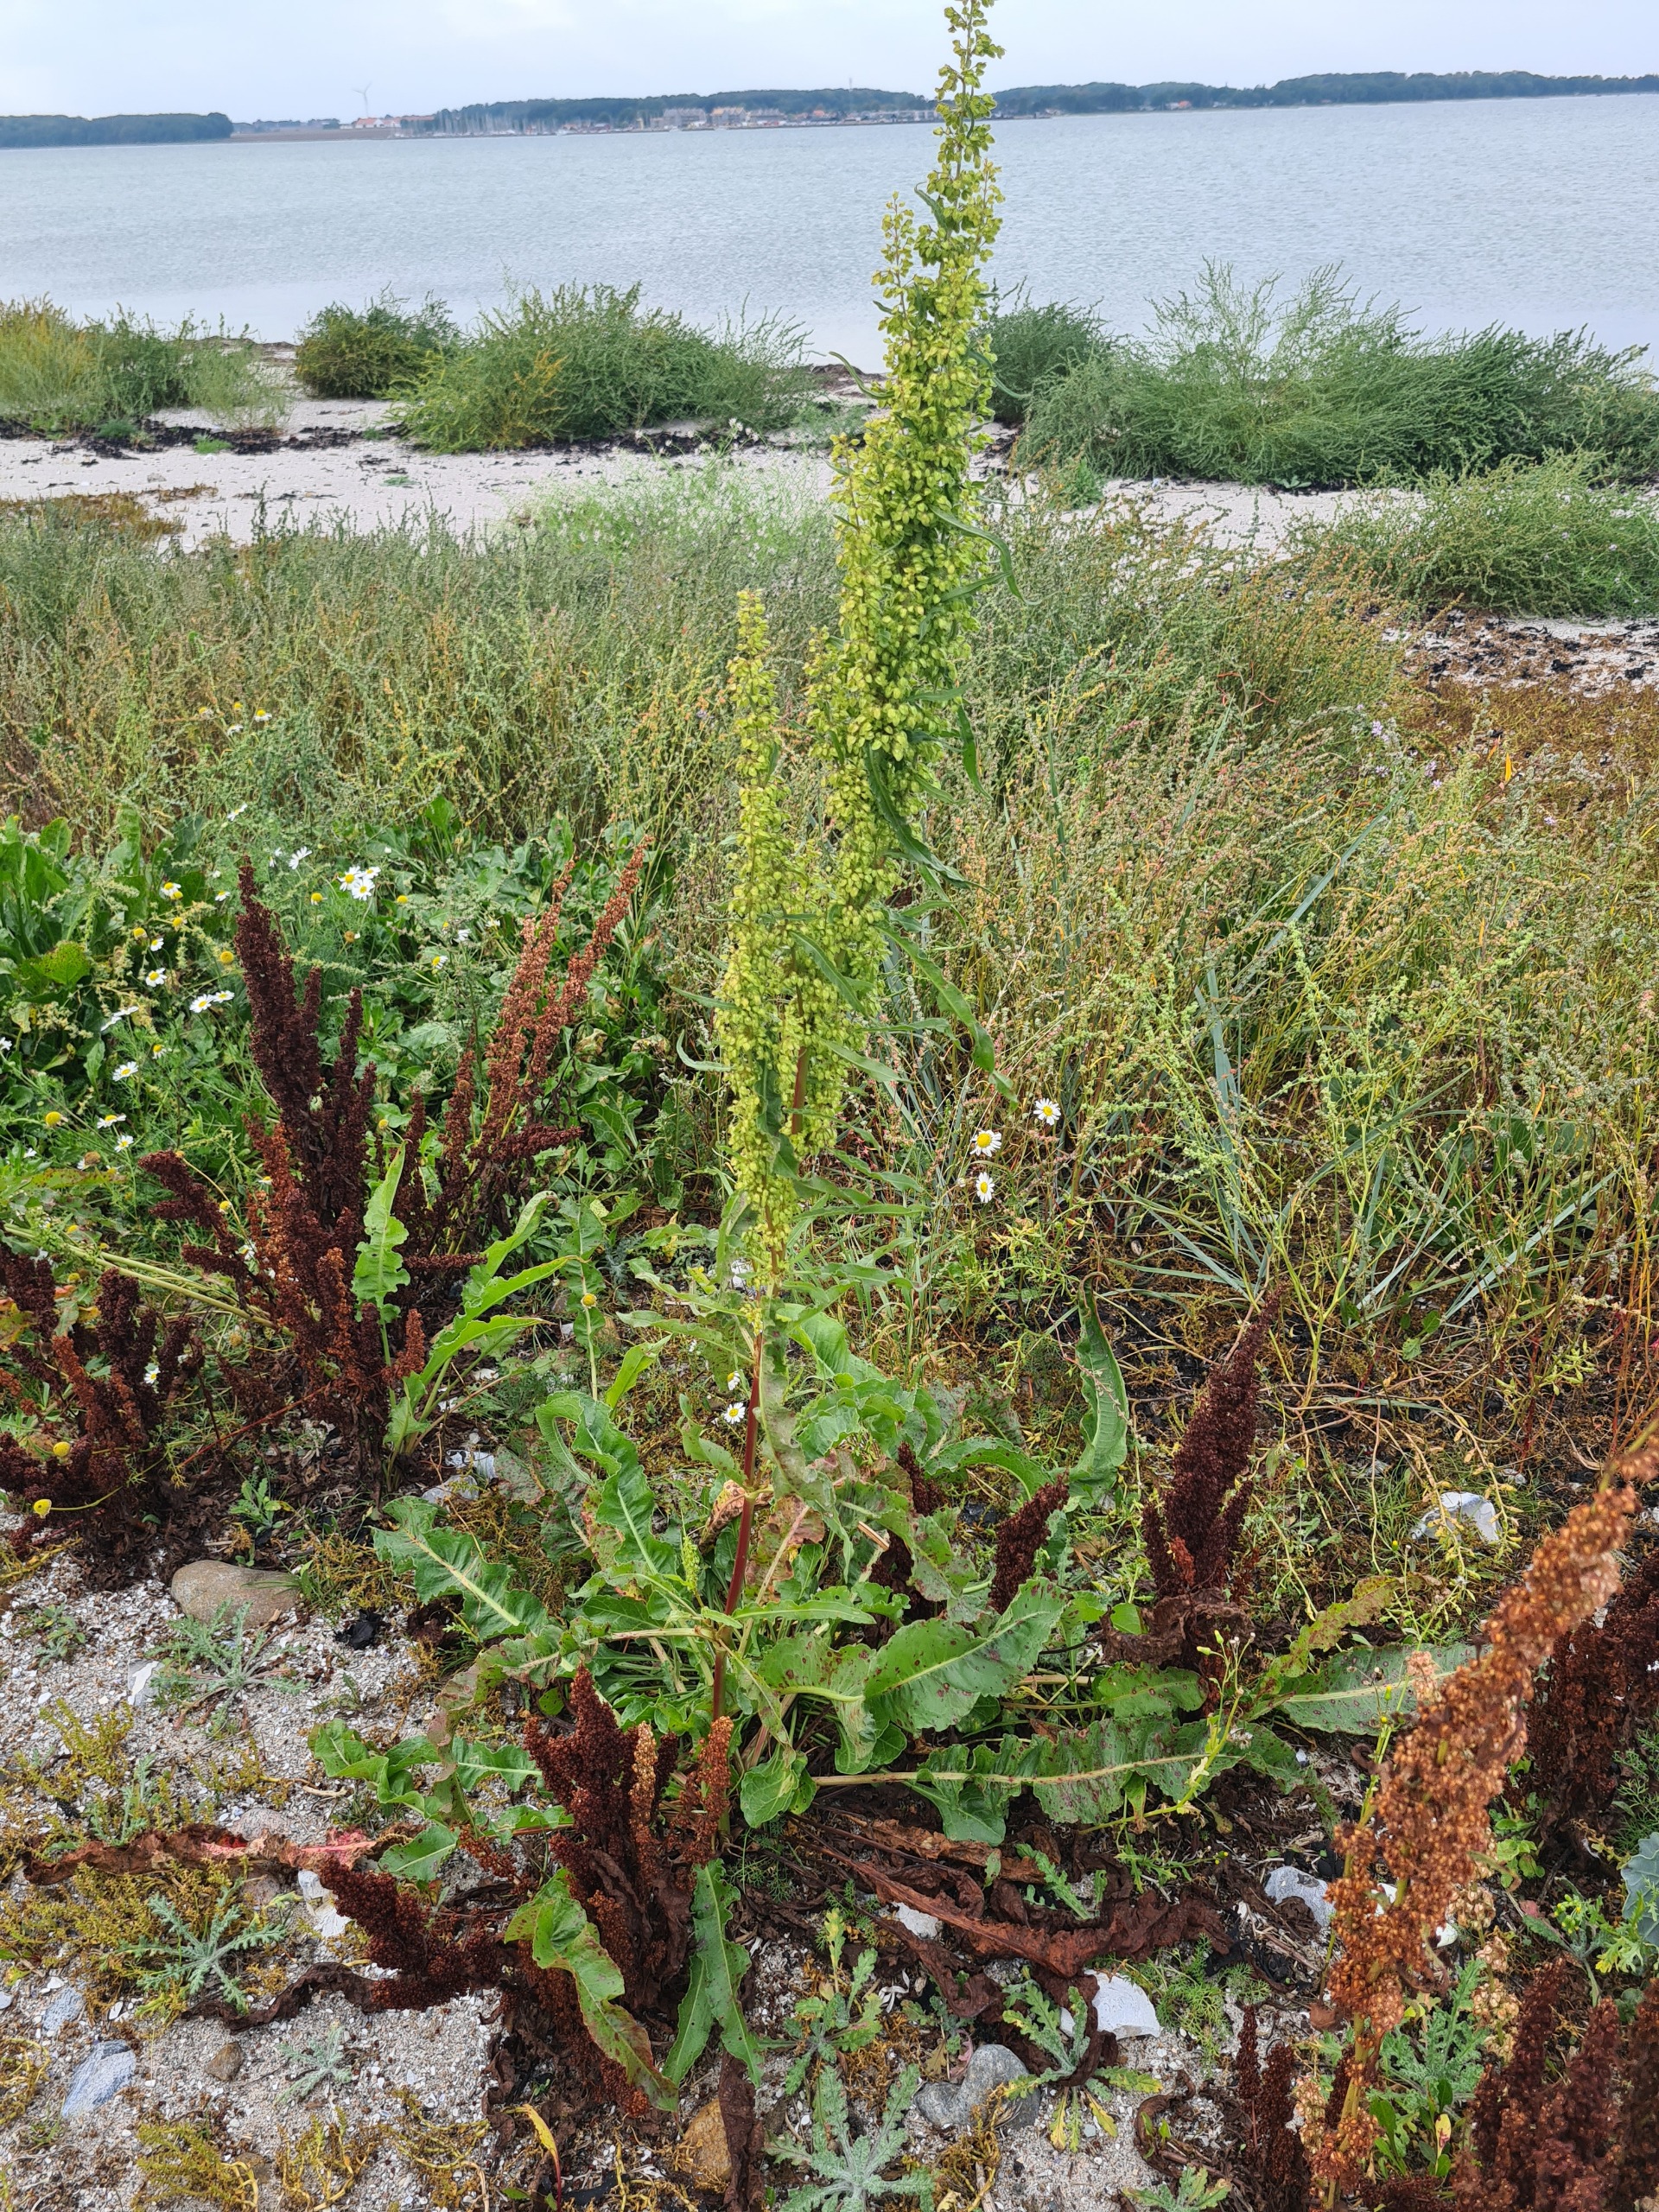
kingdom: Plantae
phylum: Tracheophyta
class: Magnoliopsida
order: Caryophyllales
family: Polygonaceae
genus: Rumex
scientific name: Rumex crispus
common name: Kruset skræppe
